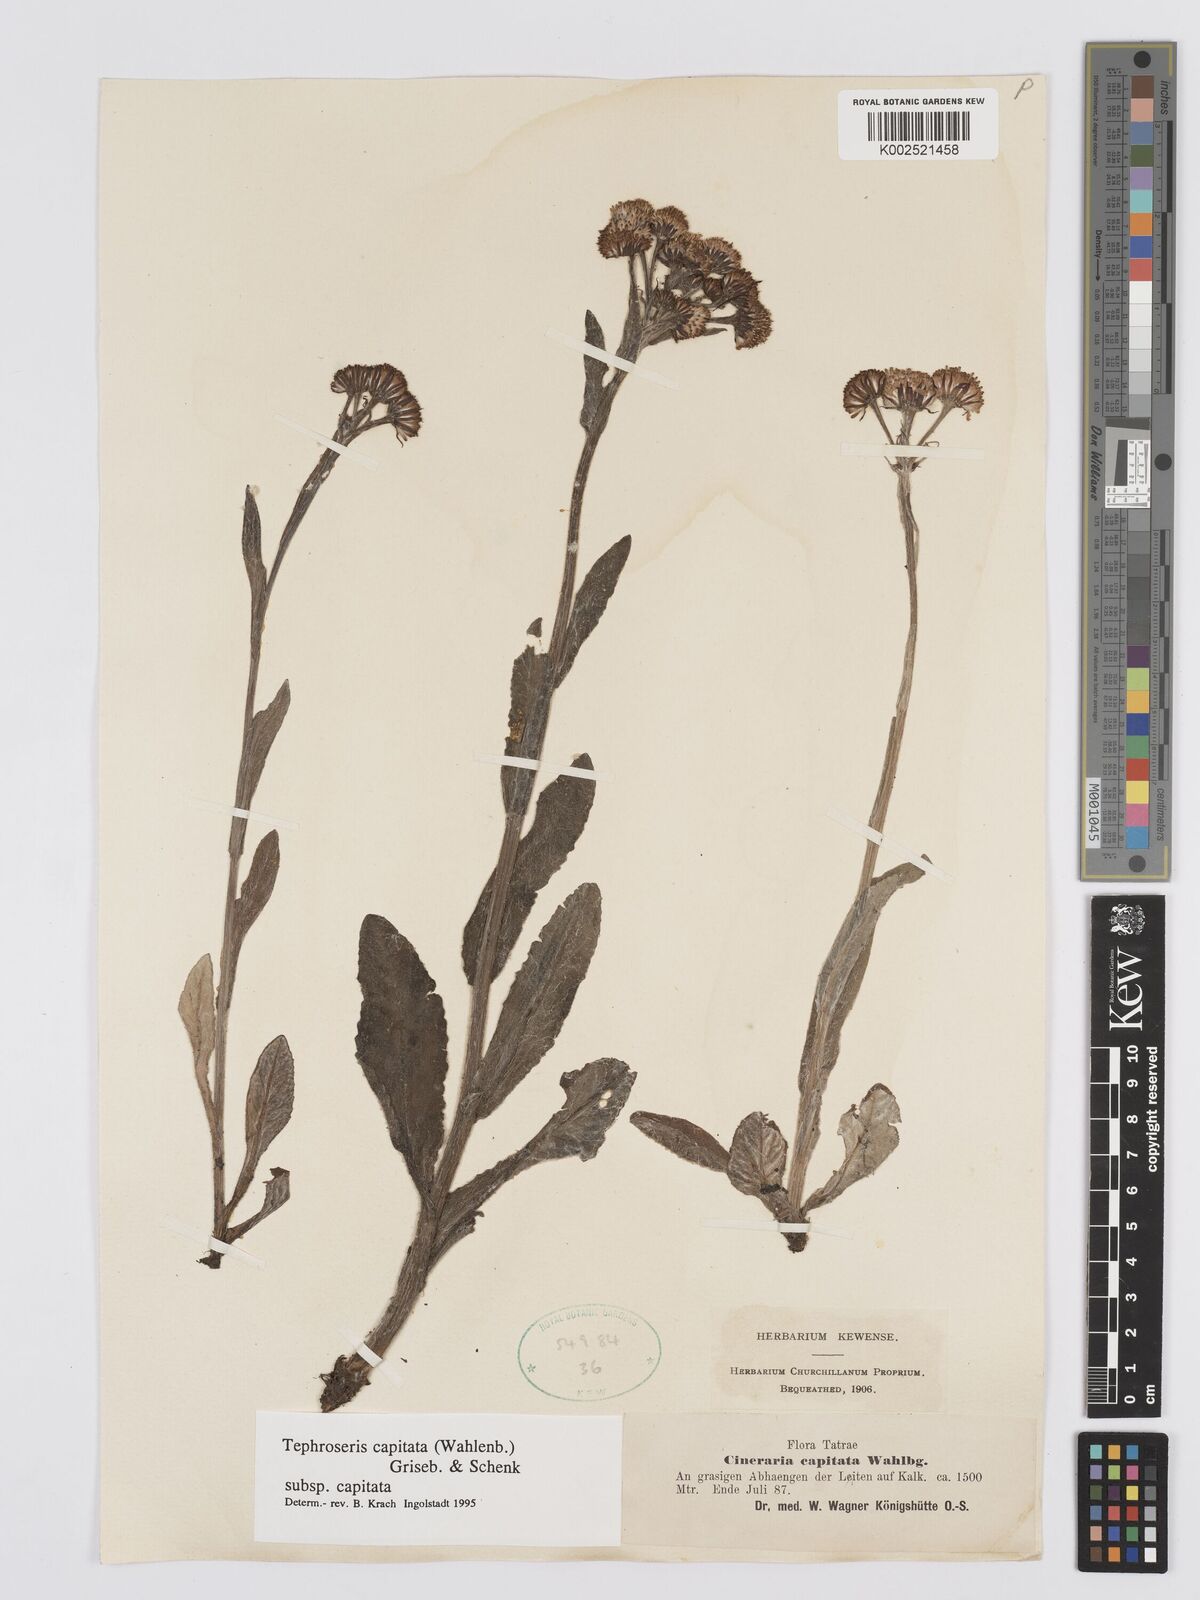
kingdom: Plantae
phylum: Tracheophyta
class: Magnoliopsida
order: Asterales
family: Asteraceae
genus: Tephroseris
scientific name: Tephroseris integrifolia
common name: Field fleawort
